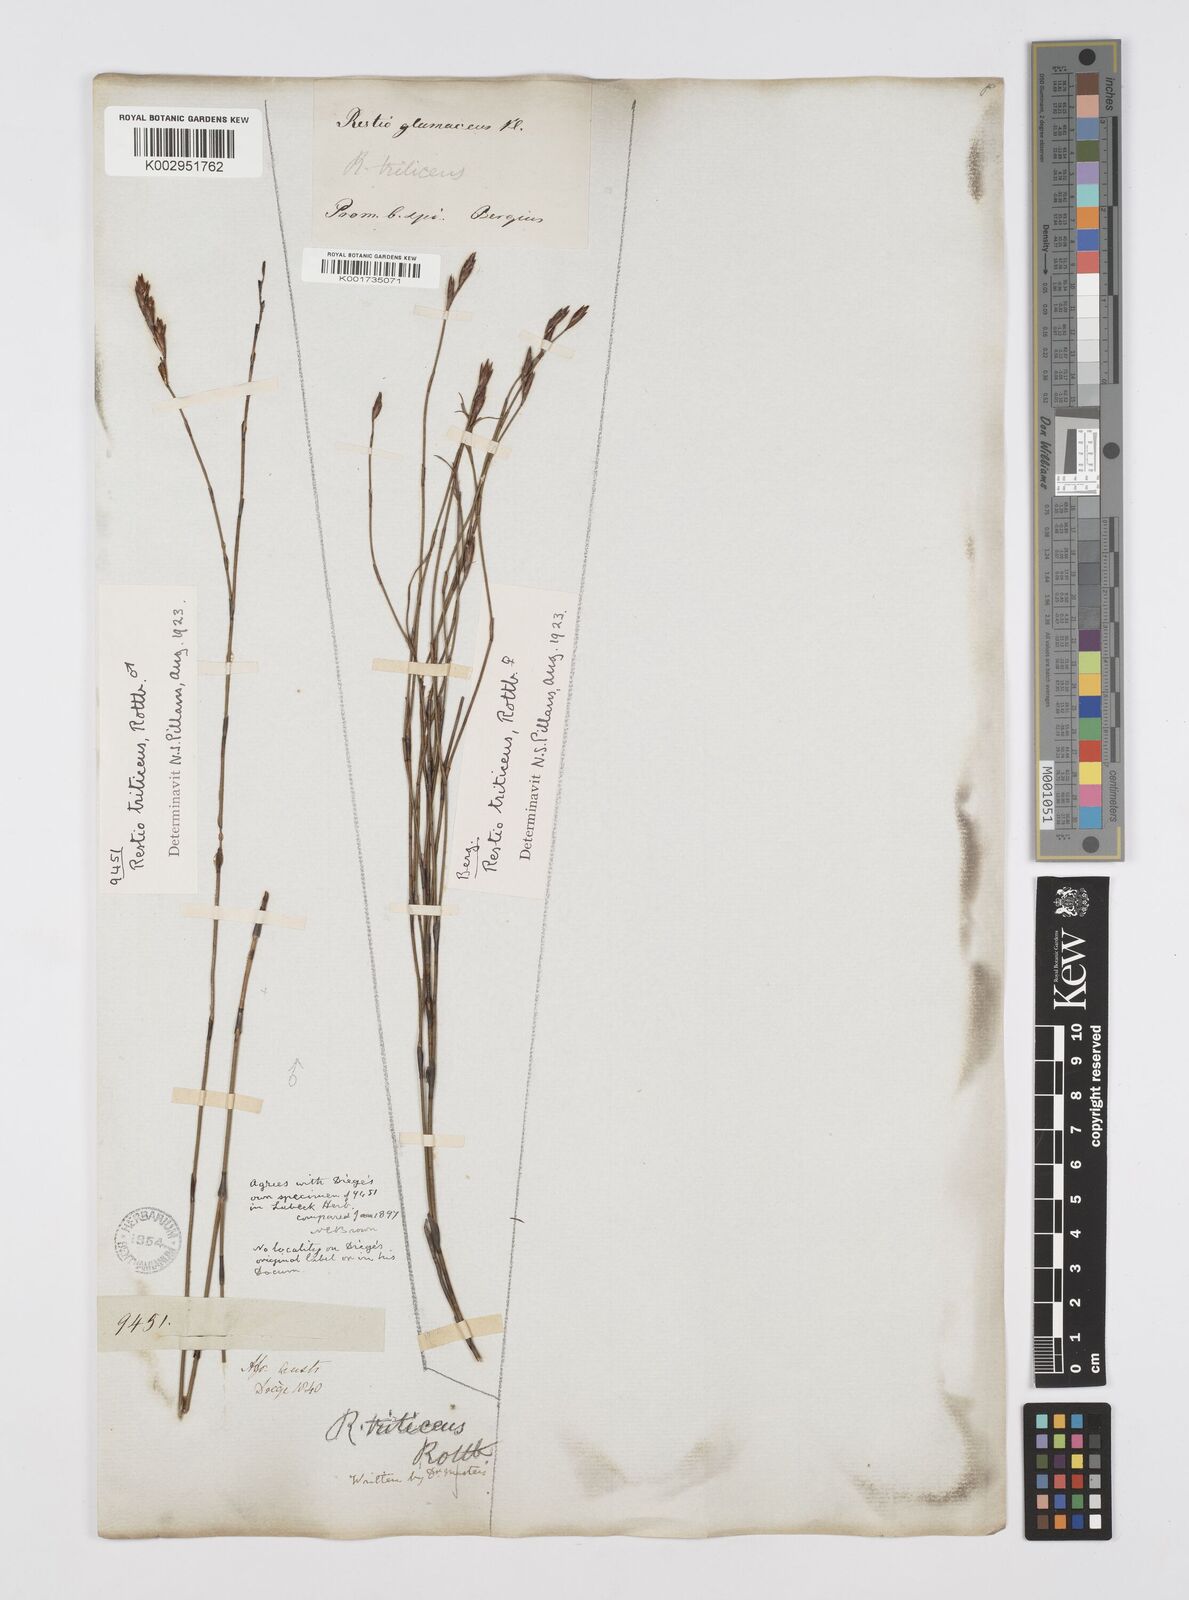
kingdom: Plantae
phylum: Tracheophyta
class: Liliopsida
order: Poales
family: Restionaceae
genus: Restio
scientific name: Restio triticeus
